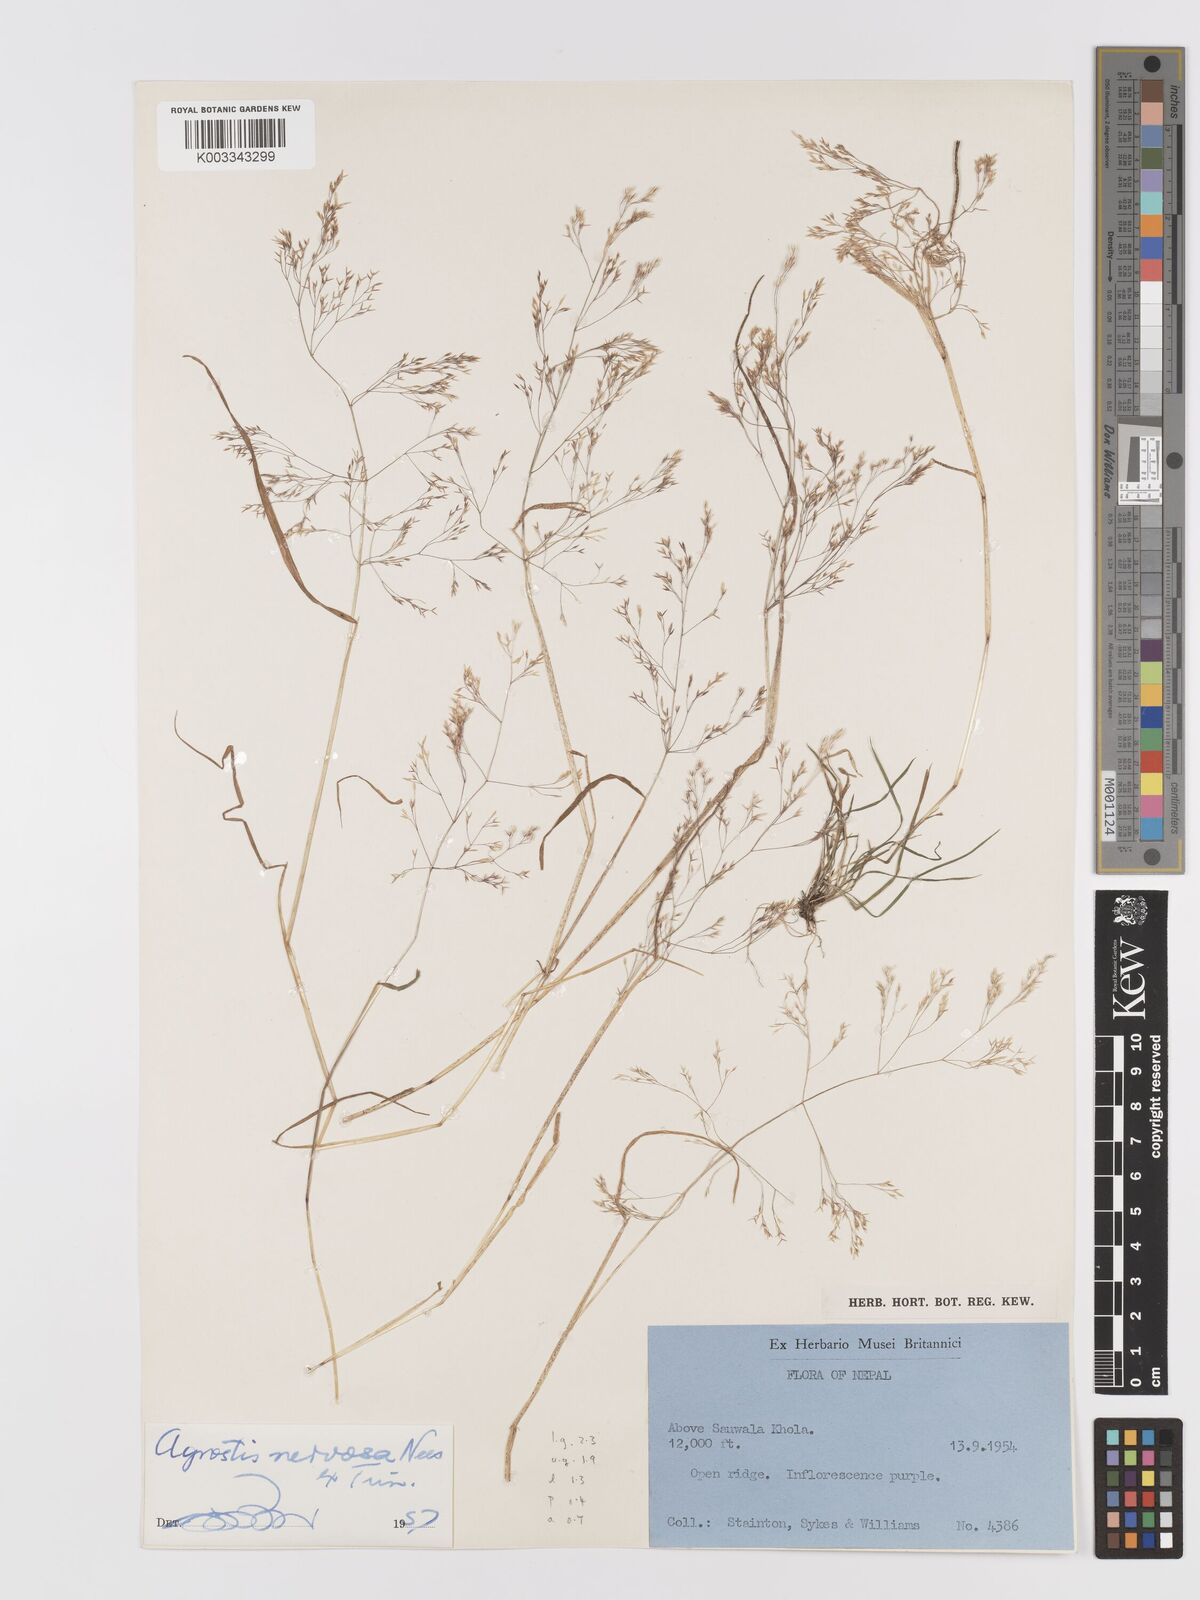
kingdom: Plantae
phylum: Tracheophyta
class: Liliopsida
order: Poales
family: Poaceae
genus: Agrostis
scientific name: Agrostis nervosa
